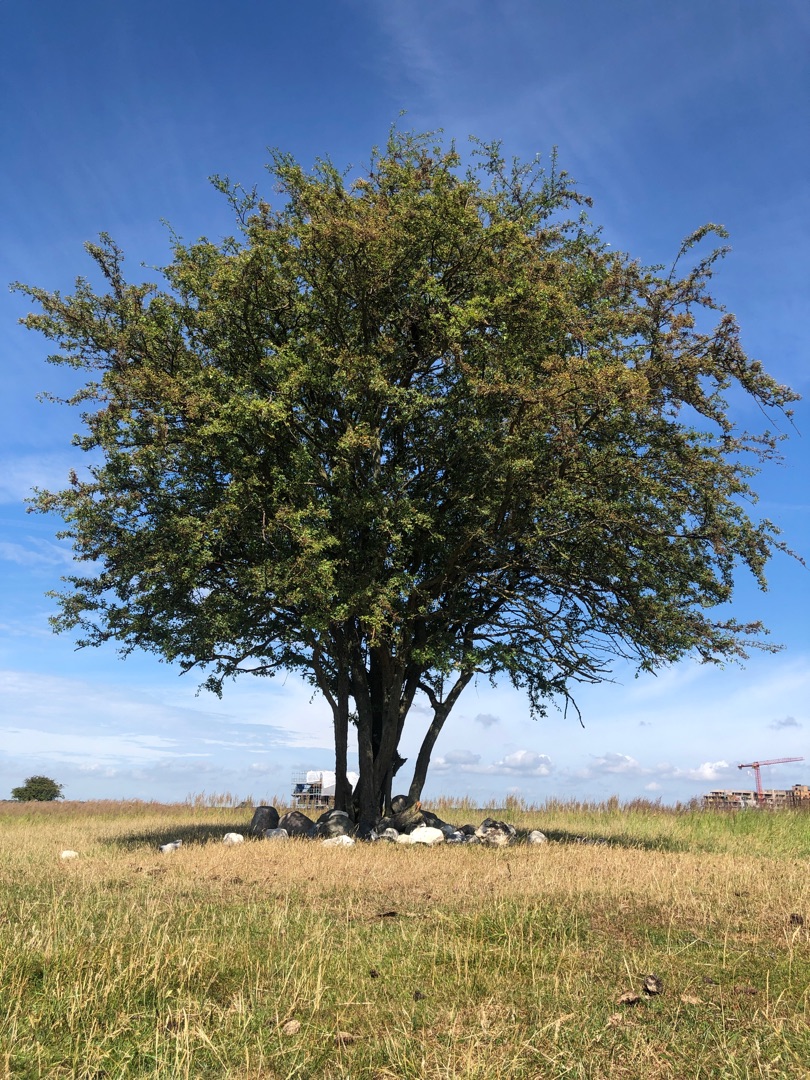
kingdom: Plantae
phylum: Tracheophyta
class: Magnoliopsida
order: Rosales
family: Rosaceae
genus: Crataegus
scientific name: Crataegus monogyna
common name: Engriflet hvidtjørn
